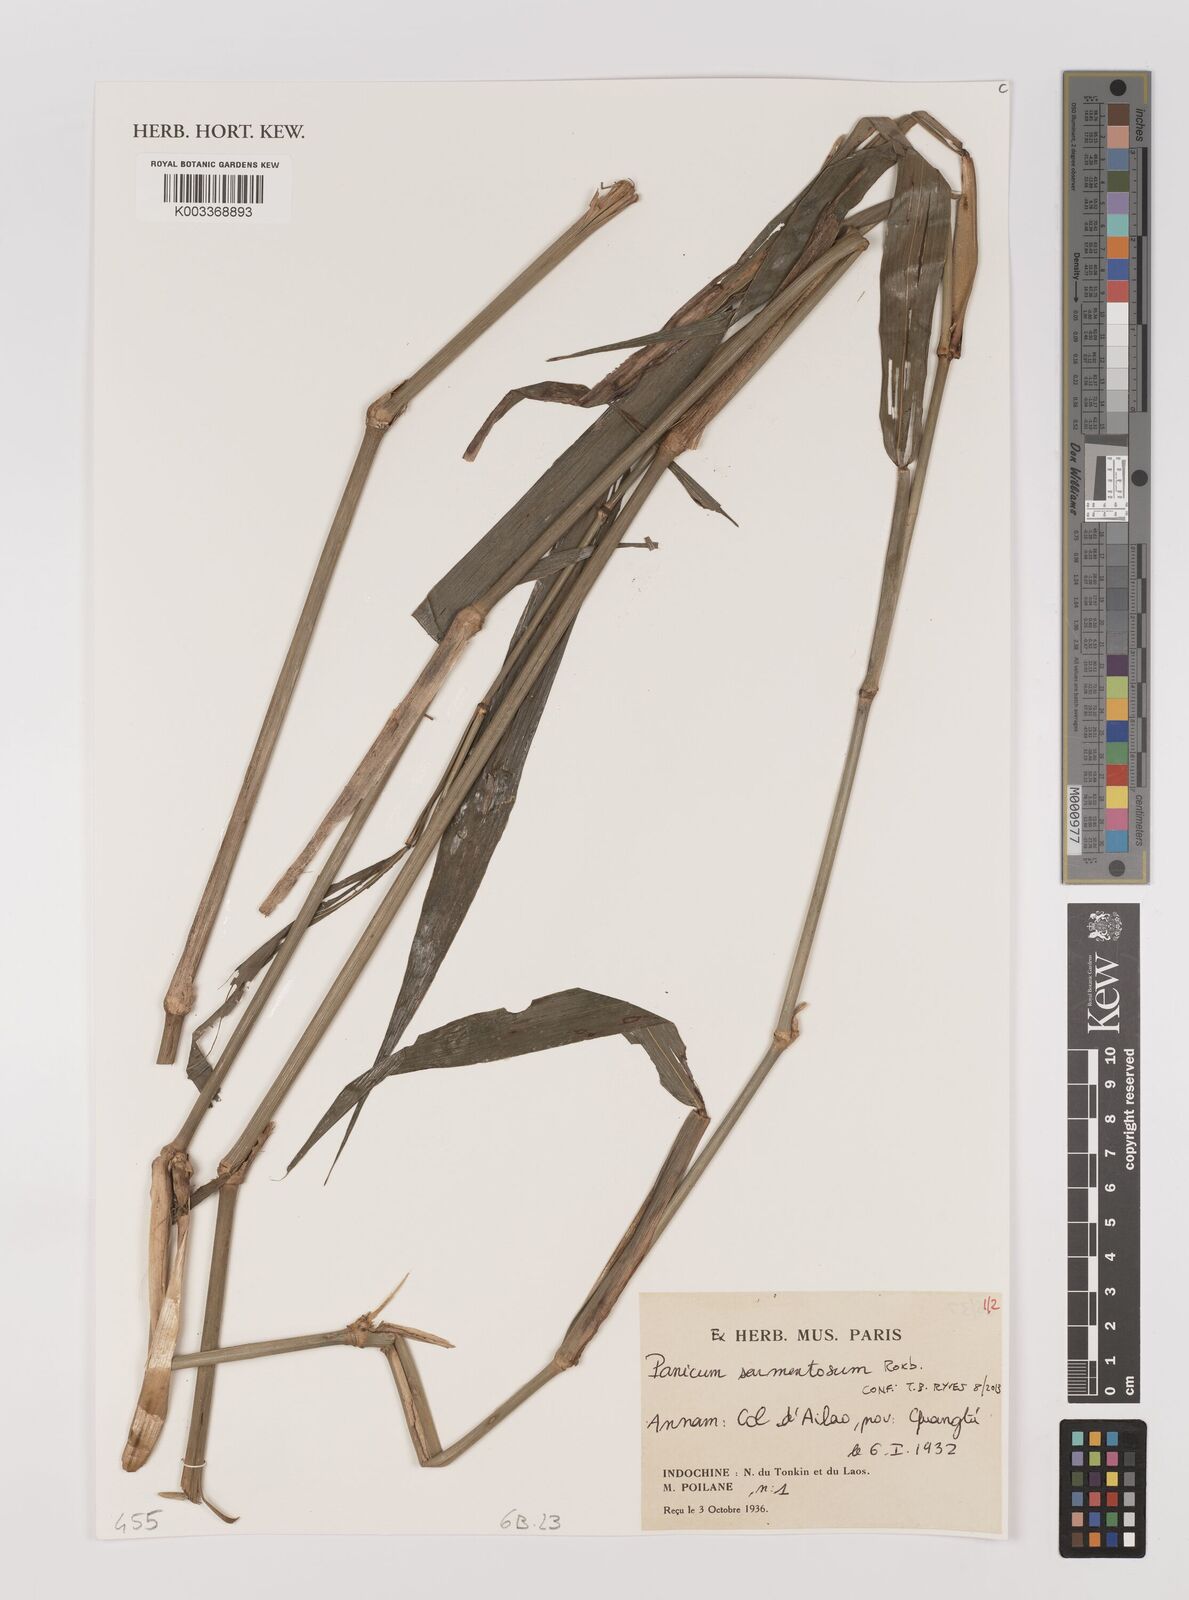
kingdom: Plantae
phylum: Tracheophyta
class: Liliopsida
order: Poales
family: Poaceae
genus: Panicum
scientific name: Panicum sarmentosum
